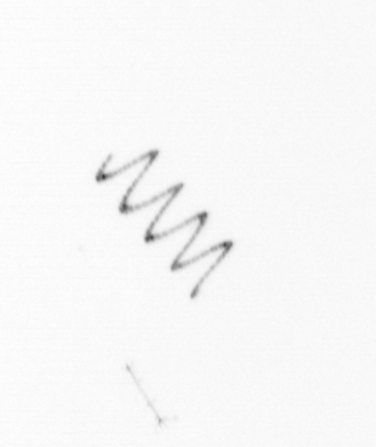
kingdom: Chromista
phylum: Ochrophyta
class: Bacillariophyceae
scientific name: Bacillariophyceae
